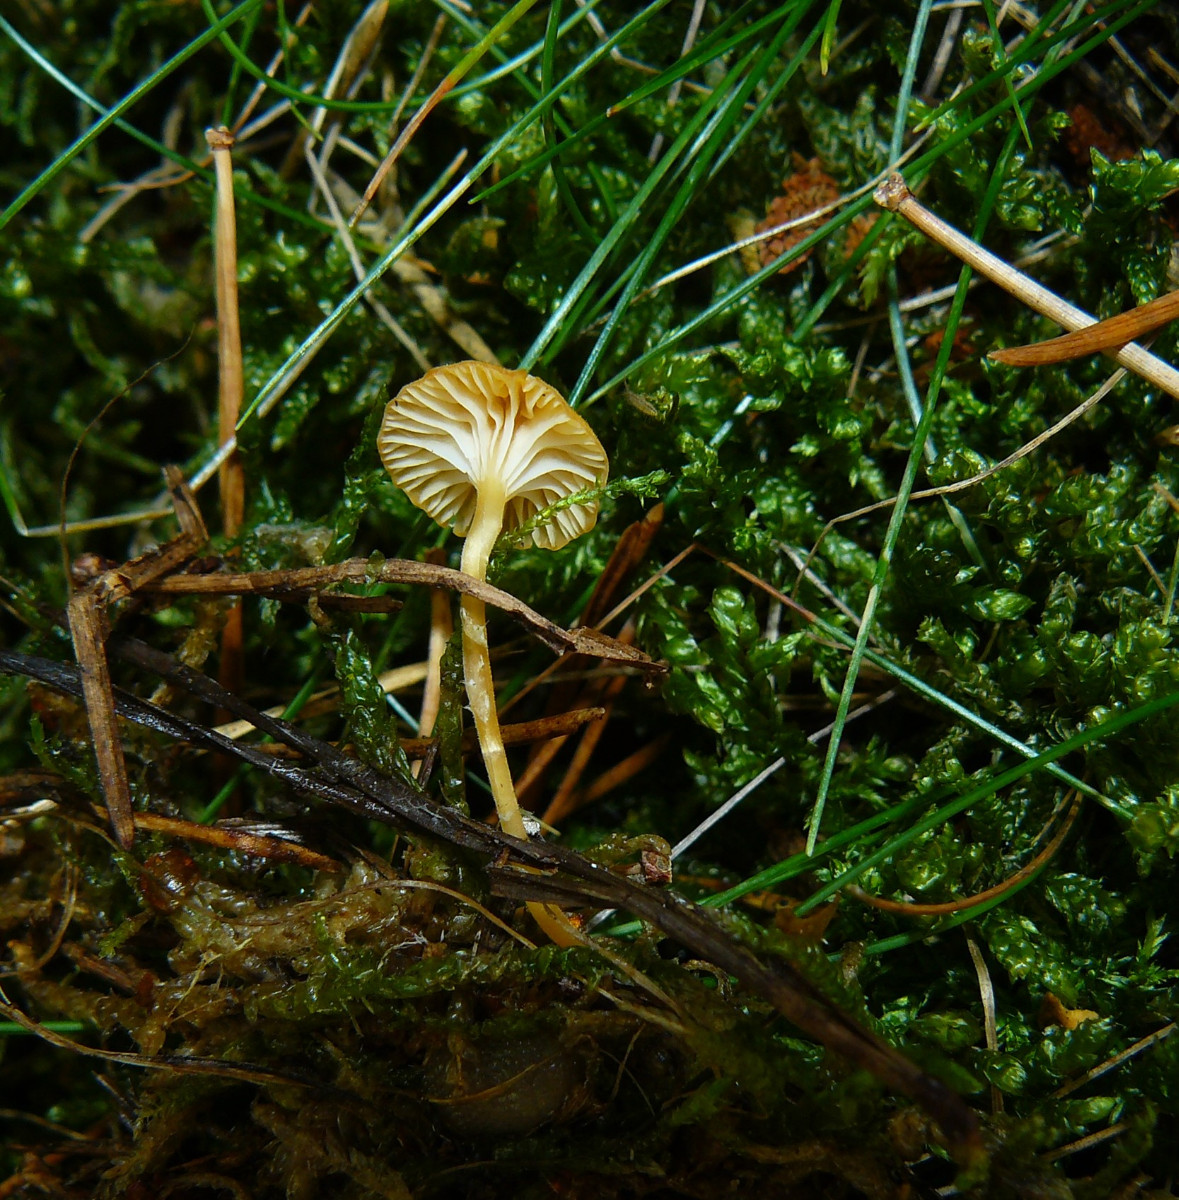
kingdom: Fungi
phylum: Basidiomycota
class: Agaricomycetes
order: Hymenochaetales
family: Rickenellaceae
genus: Rickenella
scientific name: Rickenella fibula
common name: orange mosnavlehat
